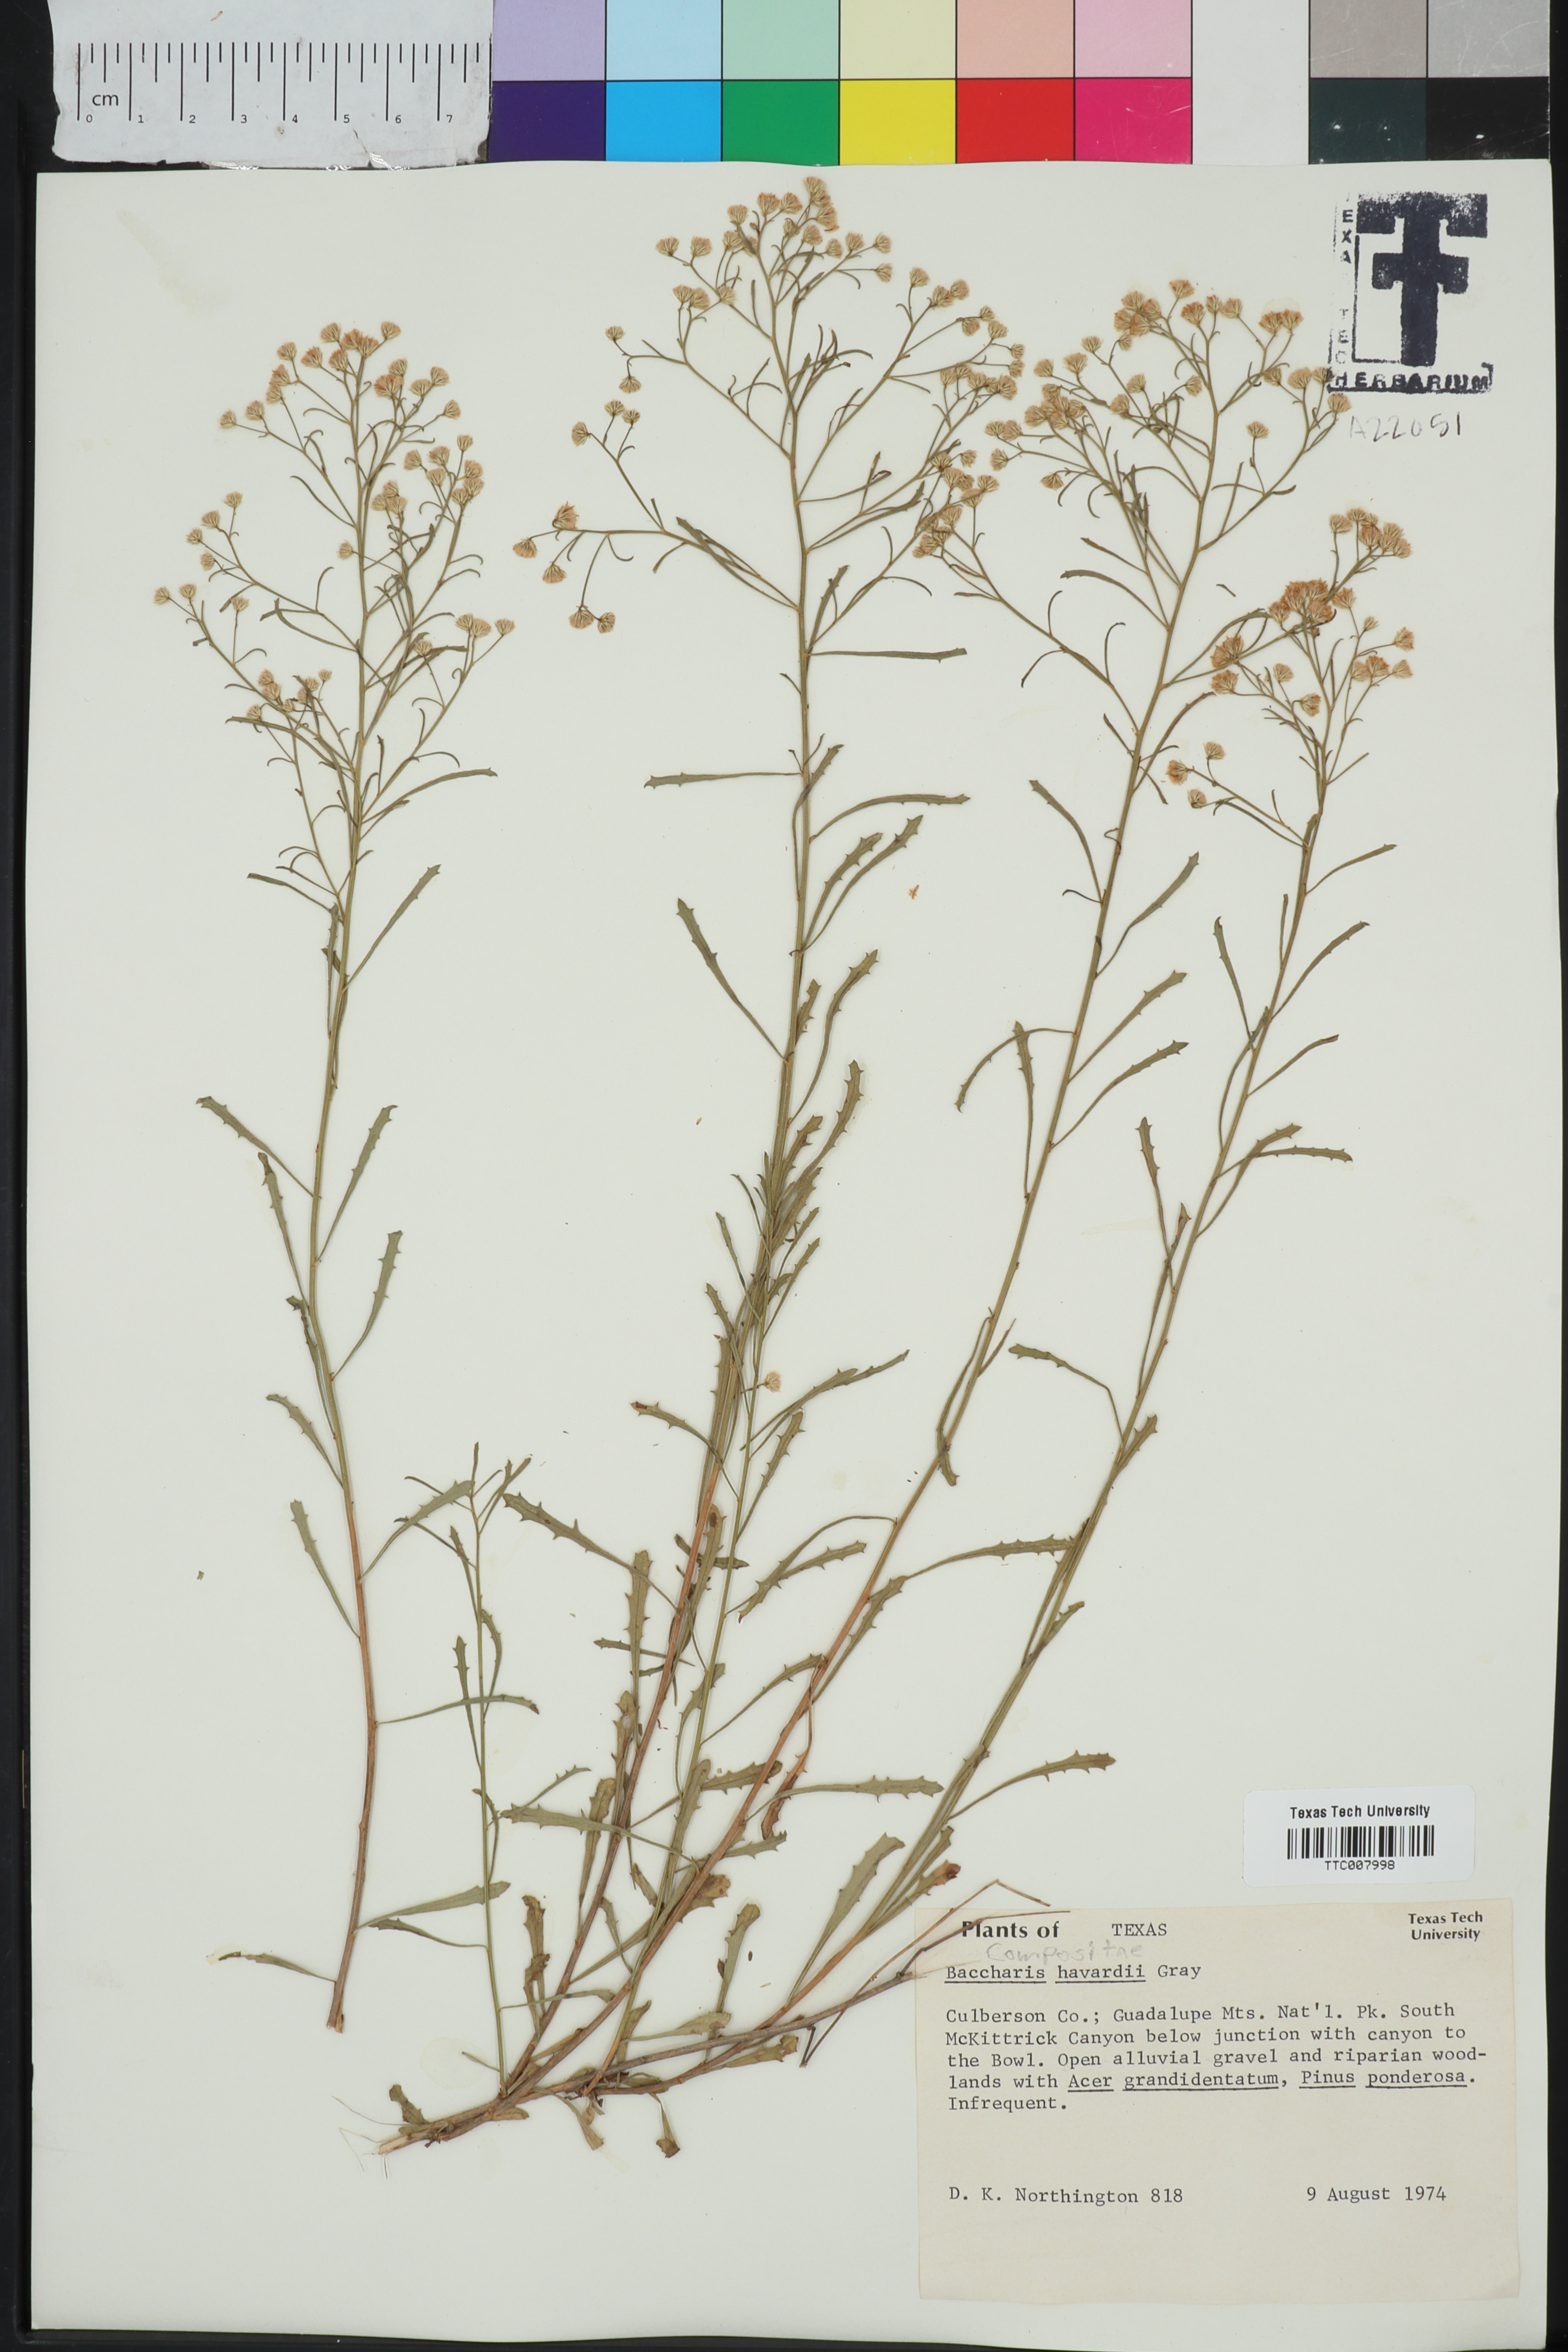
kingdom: Plantae
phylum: Tracheophyta
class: Magnoliopsida
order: Asterales
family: Asteraceae
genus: Baccharis
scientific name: Baccharis havardii
